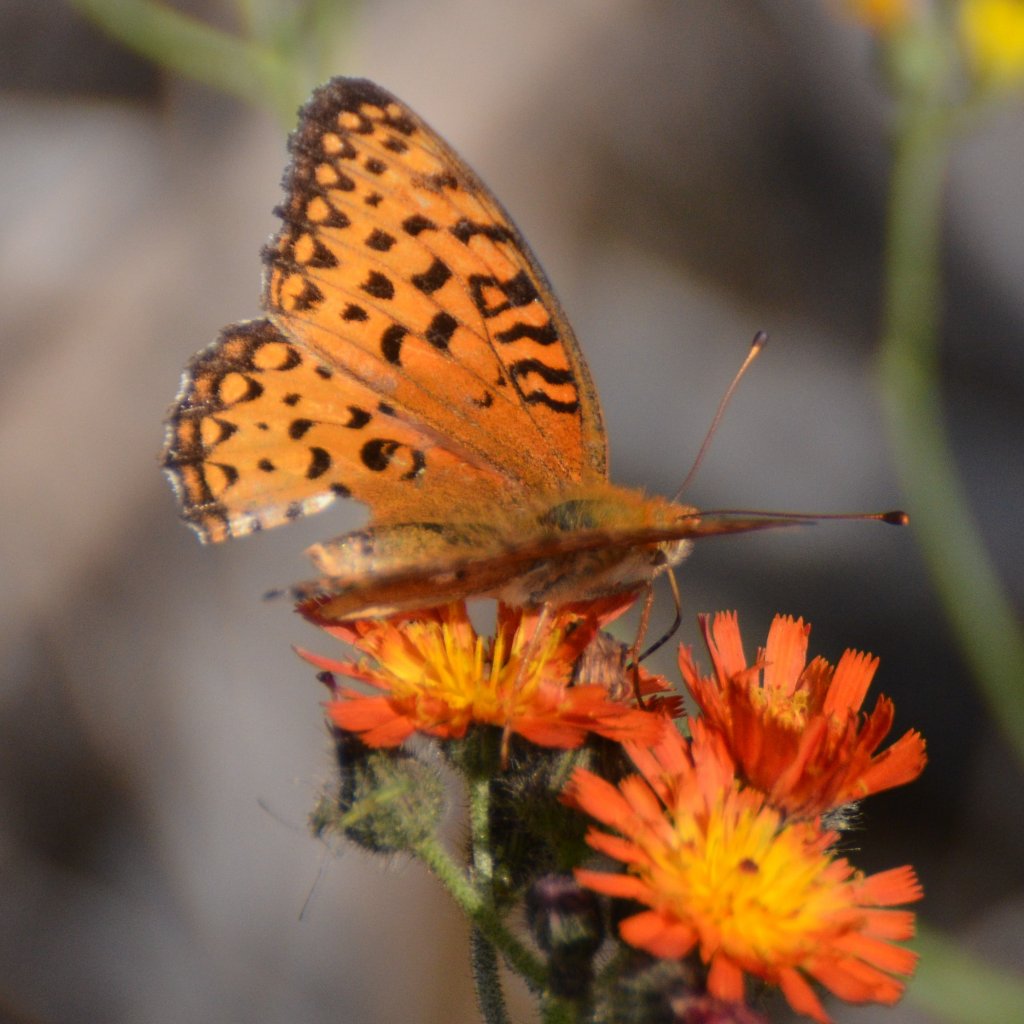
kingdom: Animalia
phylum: Arthropoda
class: Insecta
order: Lepidoptera
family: Nymphalidae
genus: Speyeria
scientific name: Speyeria aphrodite
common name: Aphrodite Fritillary
